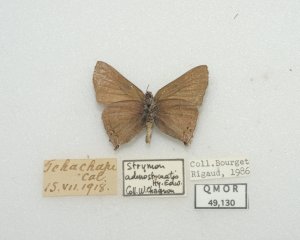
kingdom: Animalia
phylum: Arthropoda
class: Insecta
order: Lepidoptera
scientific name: Lepidoptera
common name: Butterflies
